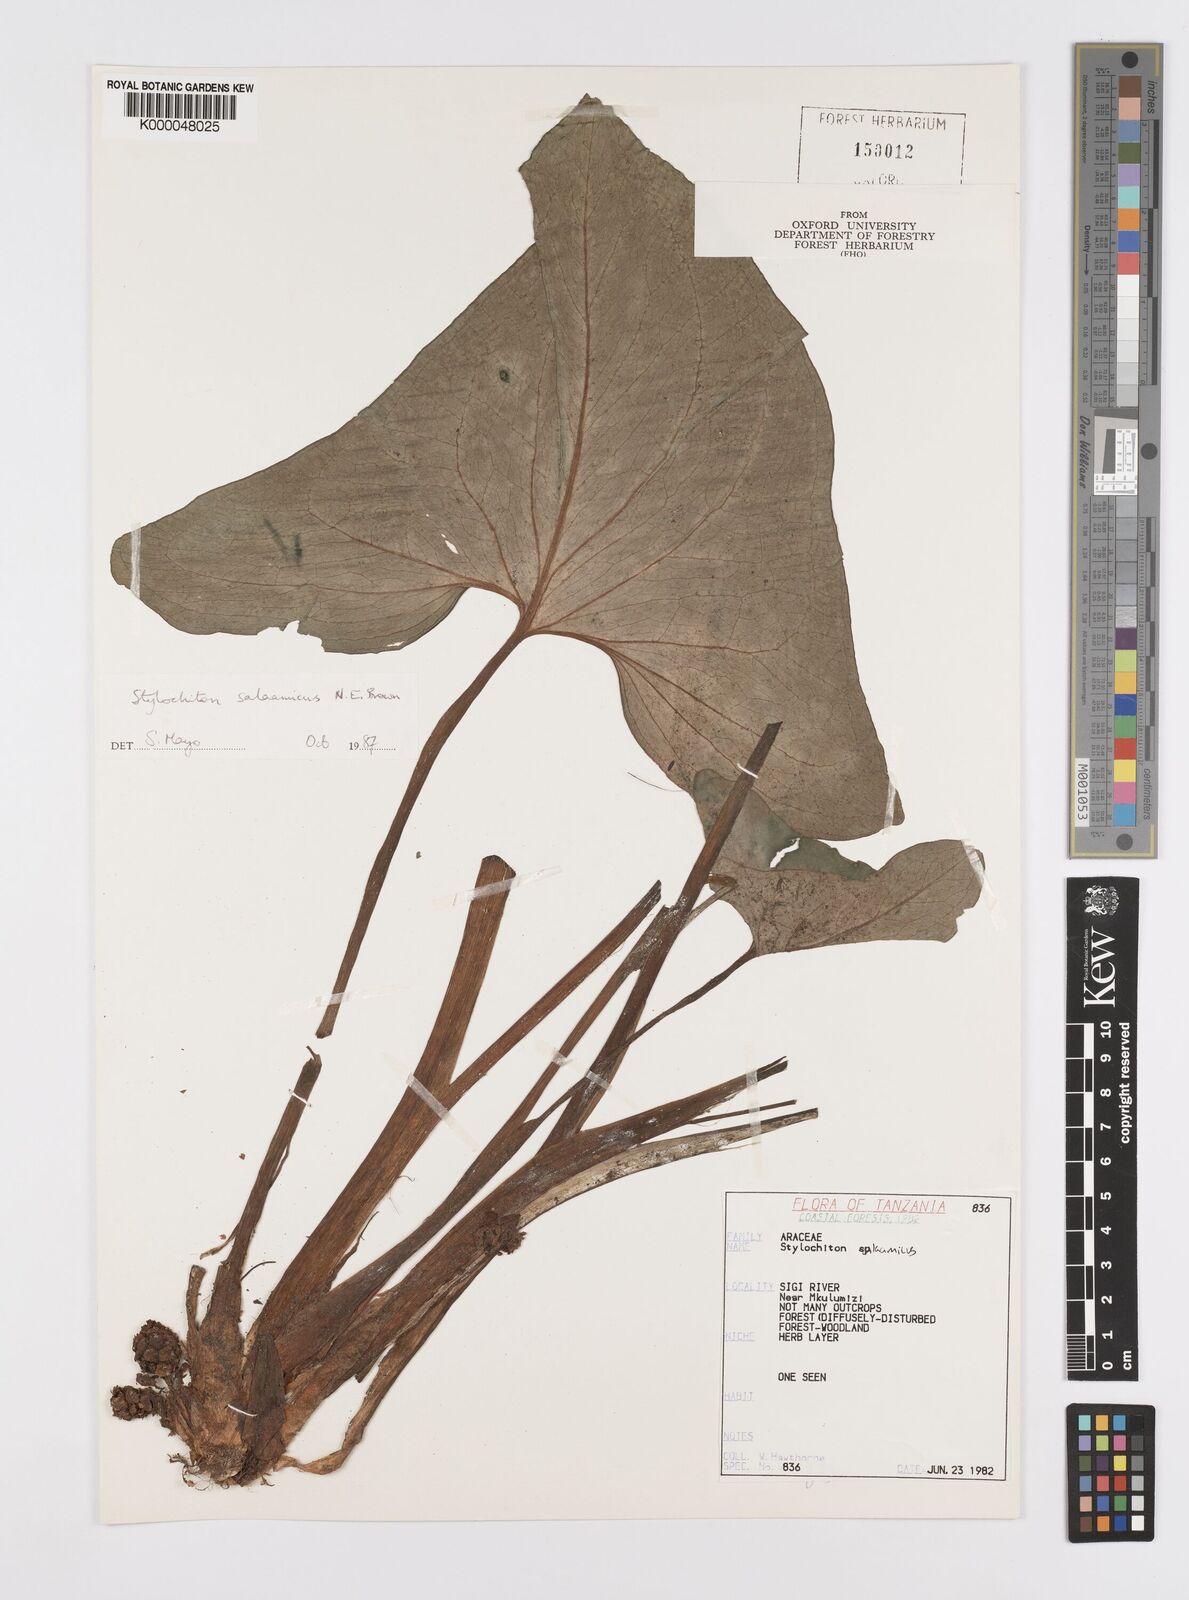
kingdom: Plantae
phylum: Tracheophyta
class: Liliopsida
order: Alismatales
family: Araceae
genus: Stylochaeton
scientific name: Stylochaeton salaamicum
